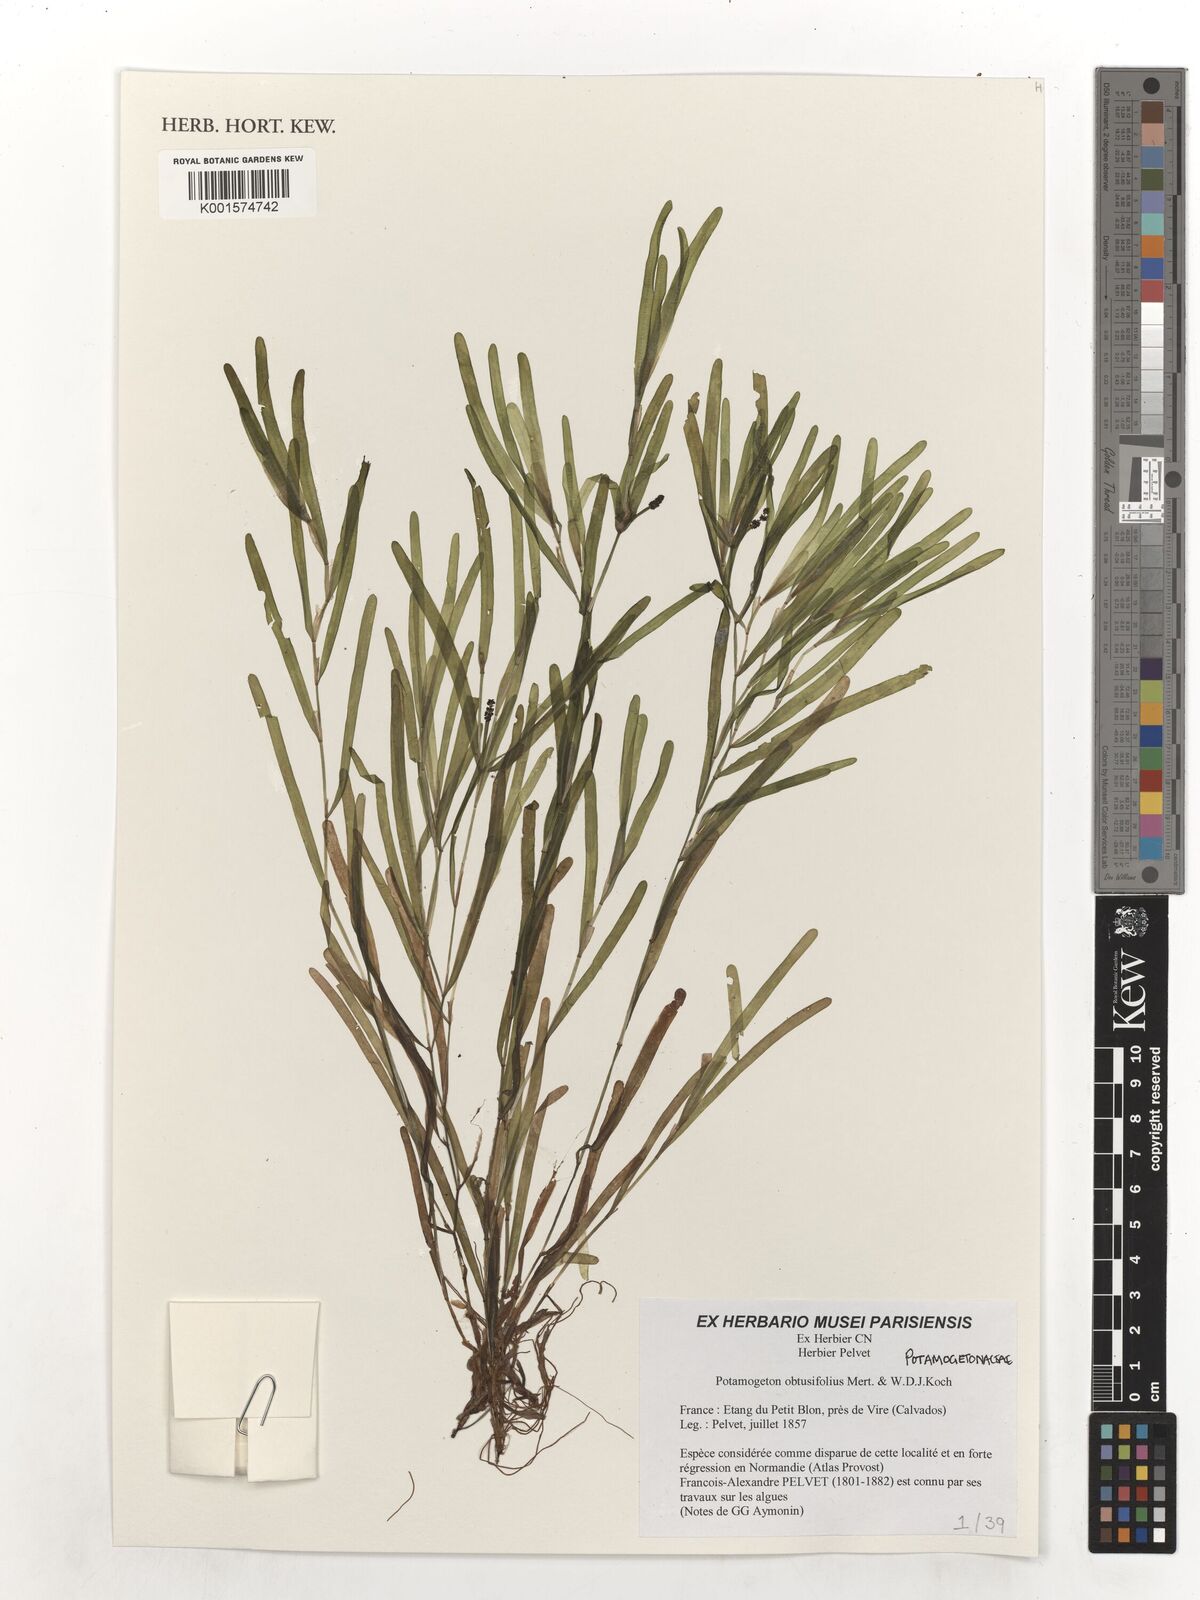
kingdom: Plantae
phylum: Tracheophyta
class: Liliopsida
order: Alismatales
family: Potamogetonaceae
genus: Potamogeton
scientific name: Potamogeton obtusifolius
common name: Blunt-leaved pondweed
